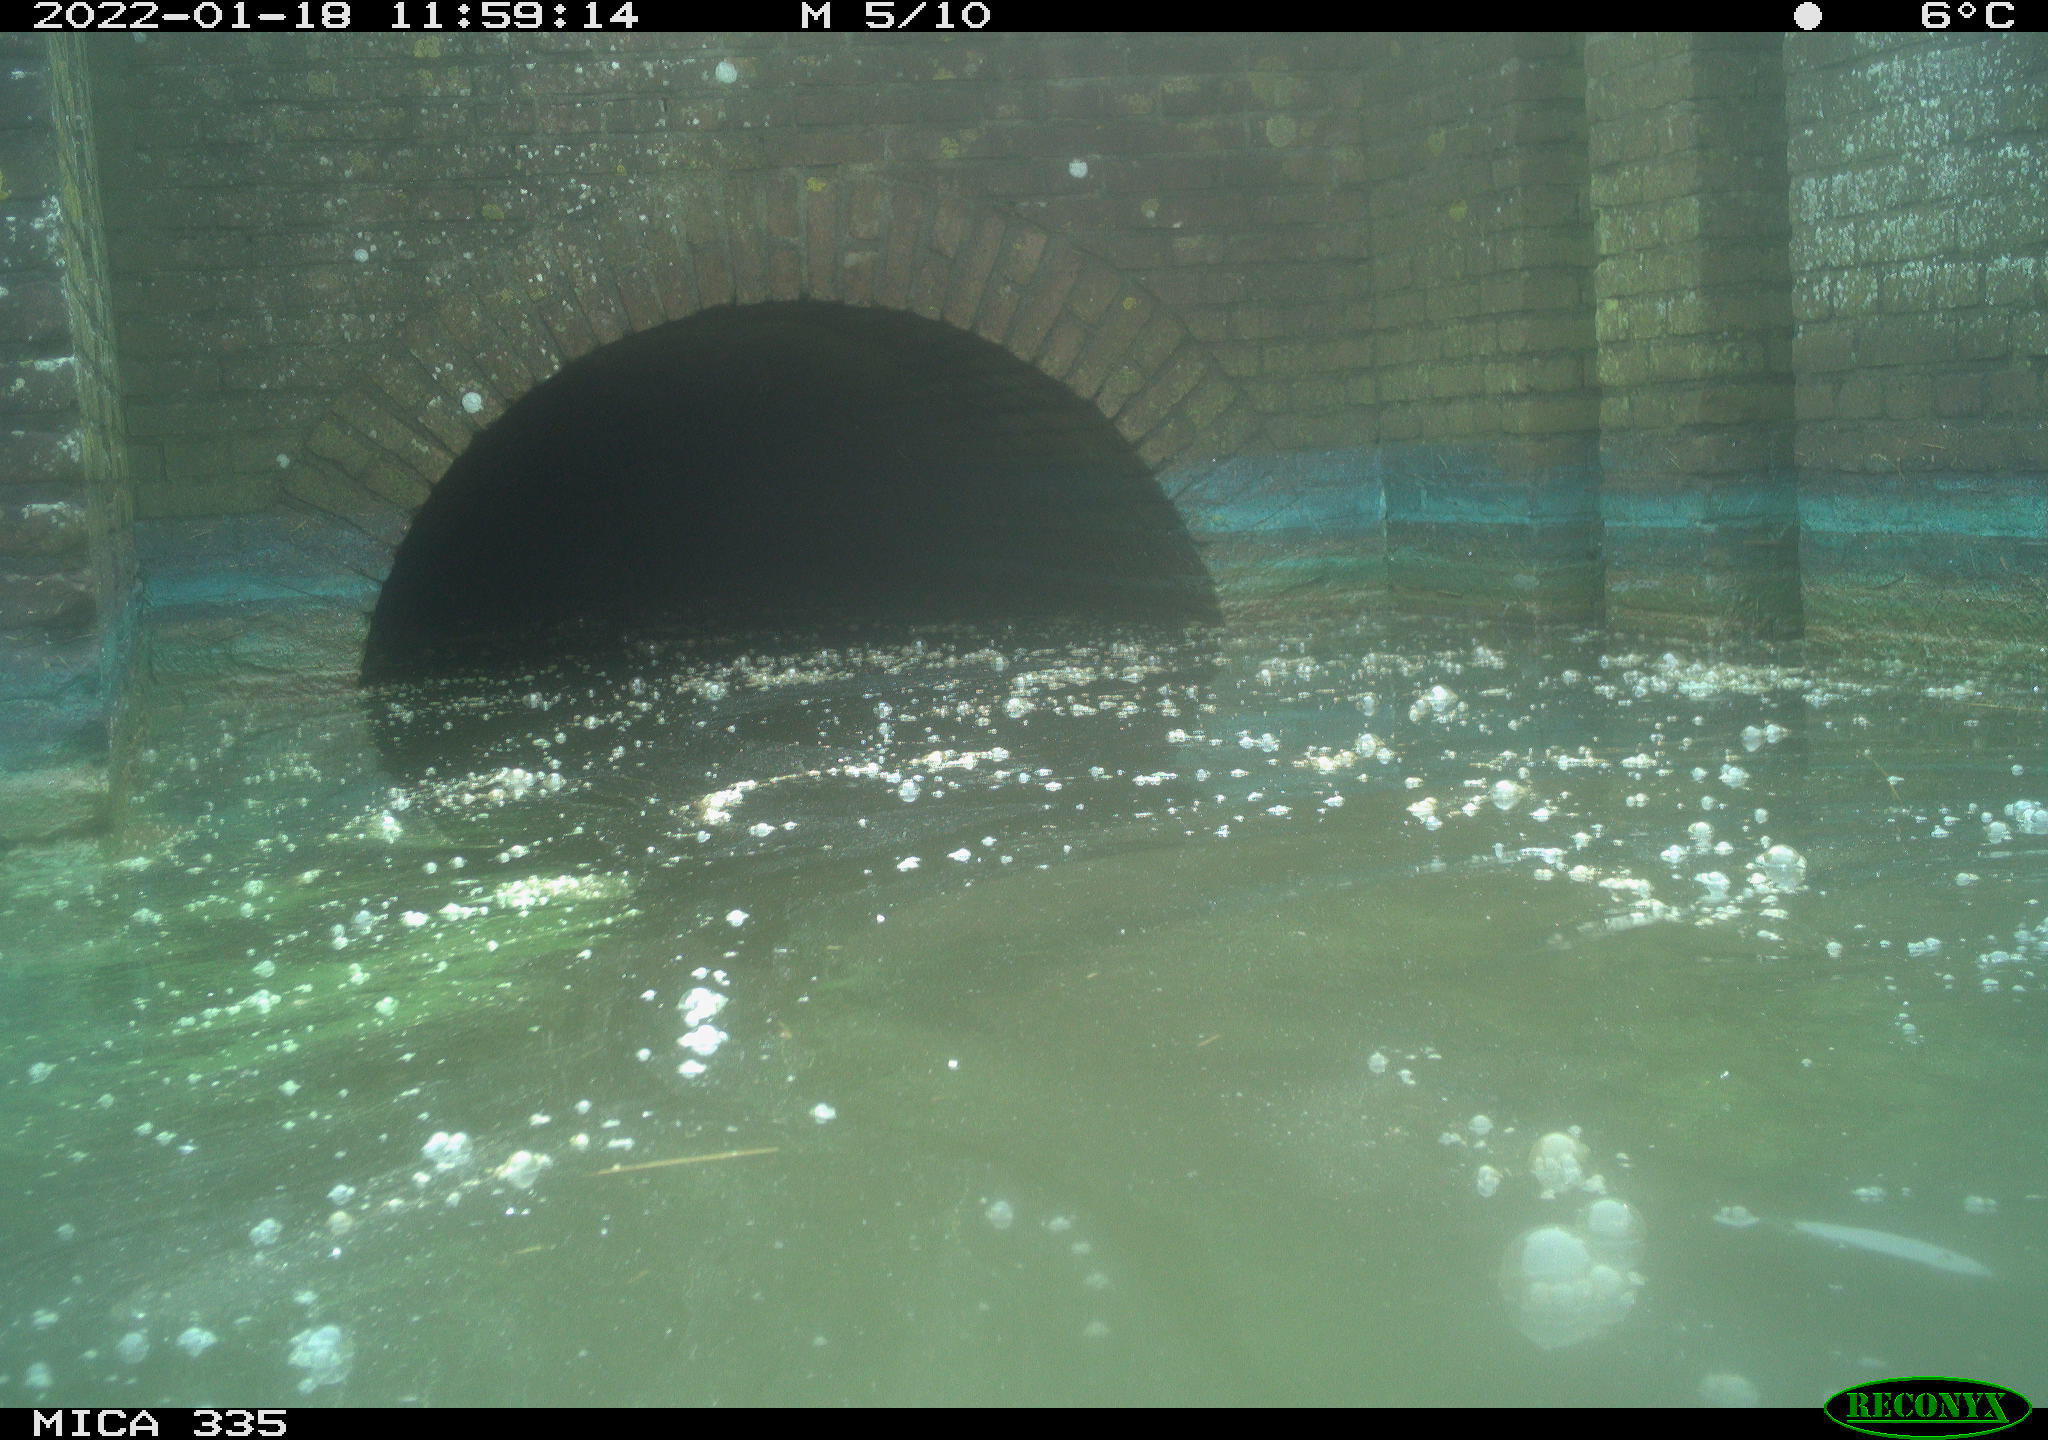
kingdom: Animalia
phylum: Chordata
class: Aves
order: Suliformes
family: Phalacrocoracidae
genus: Phalacrocorax
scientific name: Phalacrocorax carbo
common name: Great cormorant
